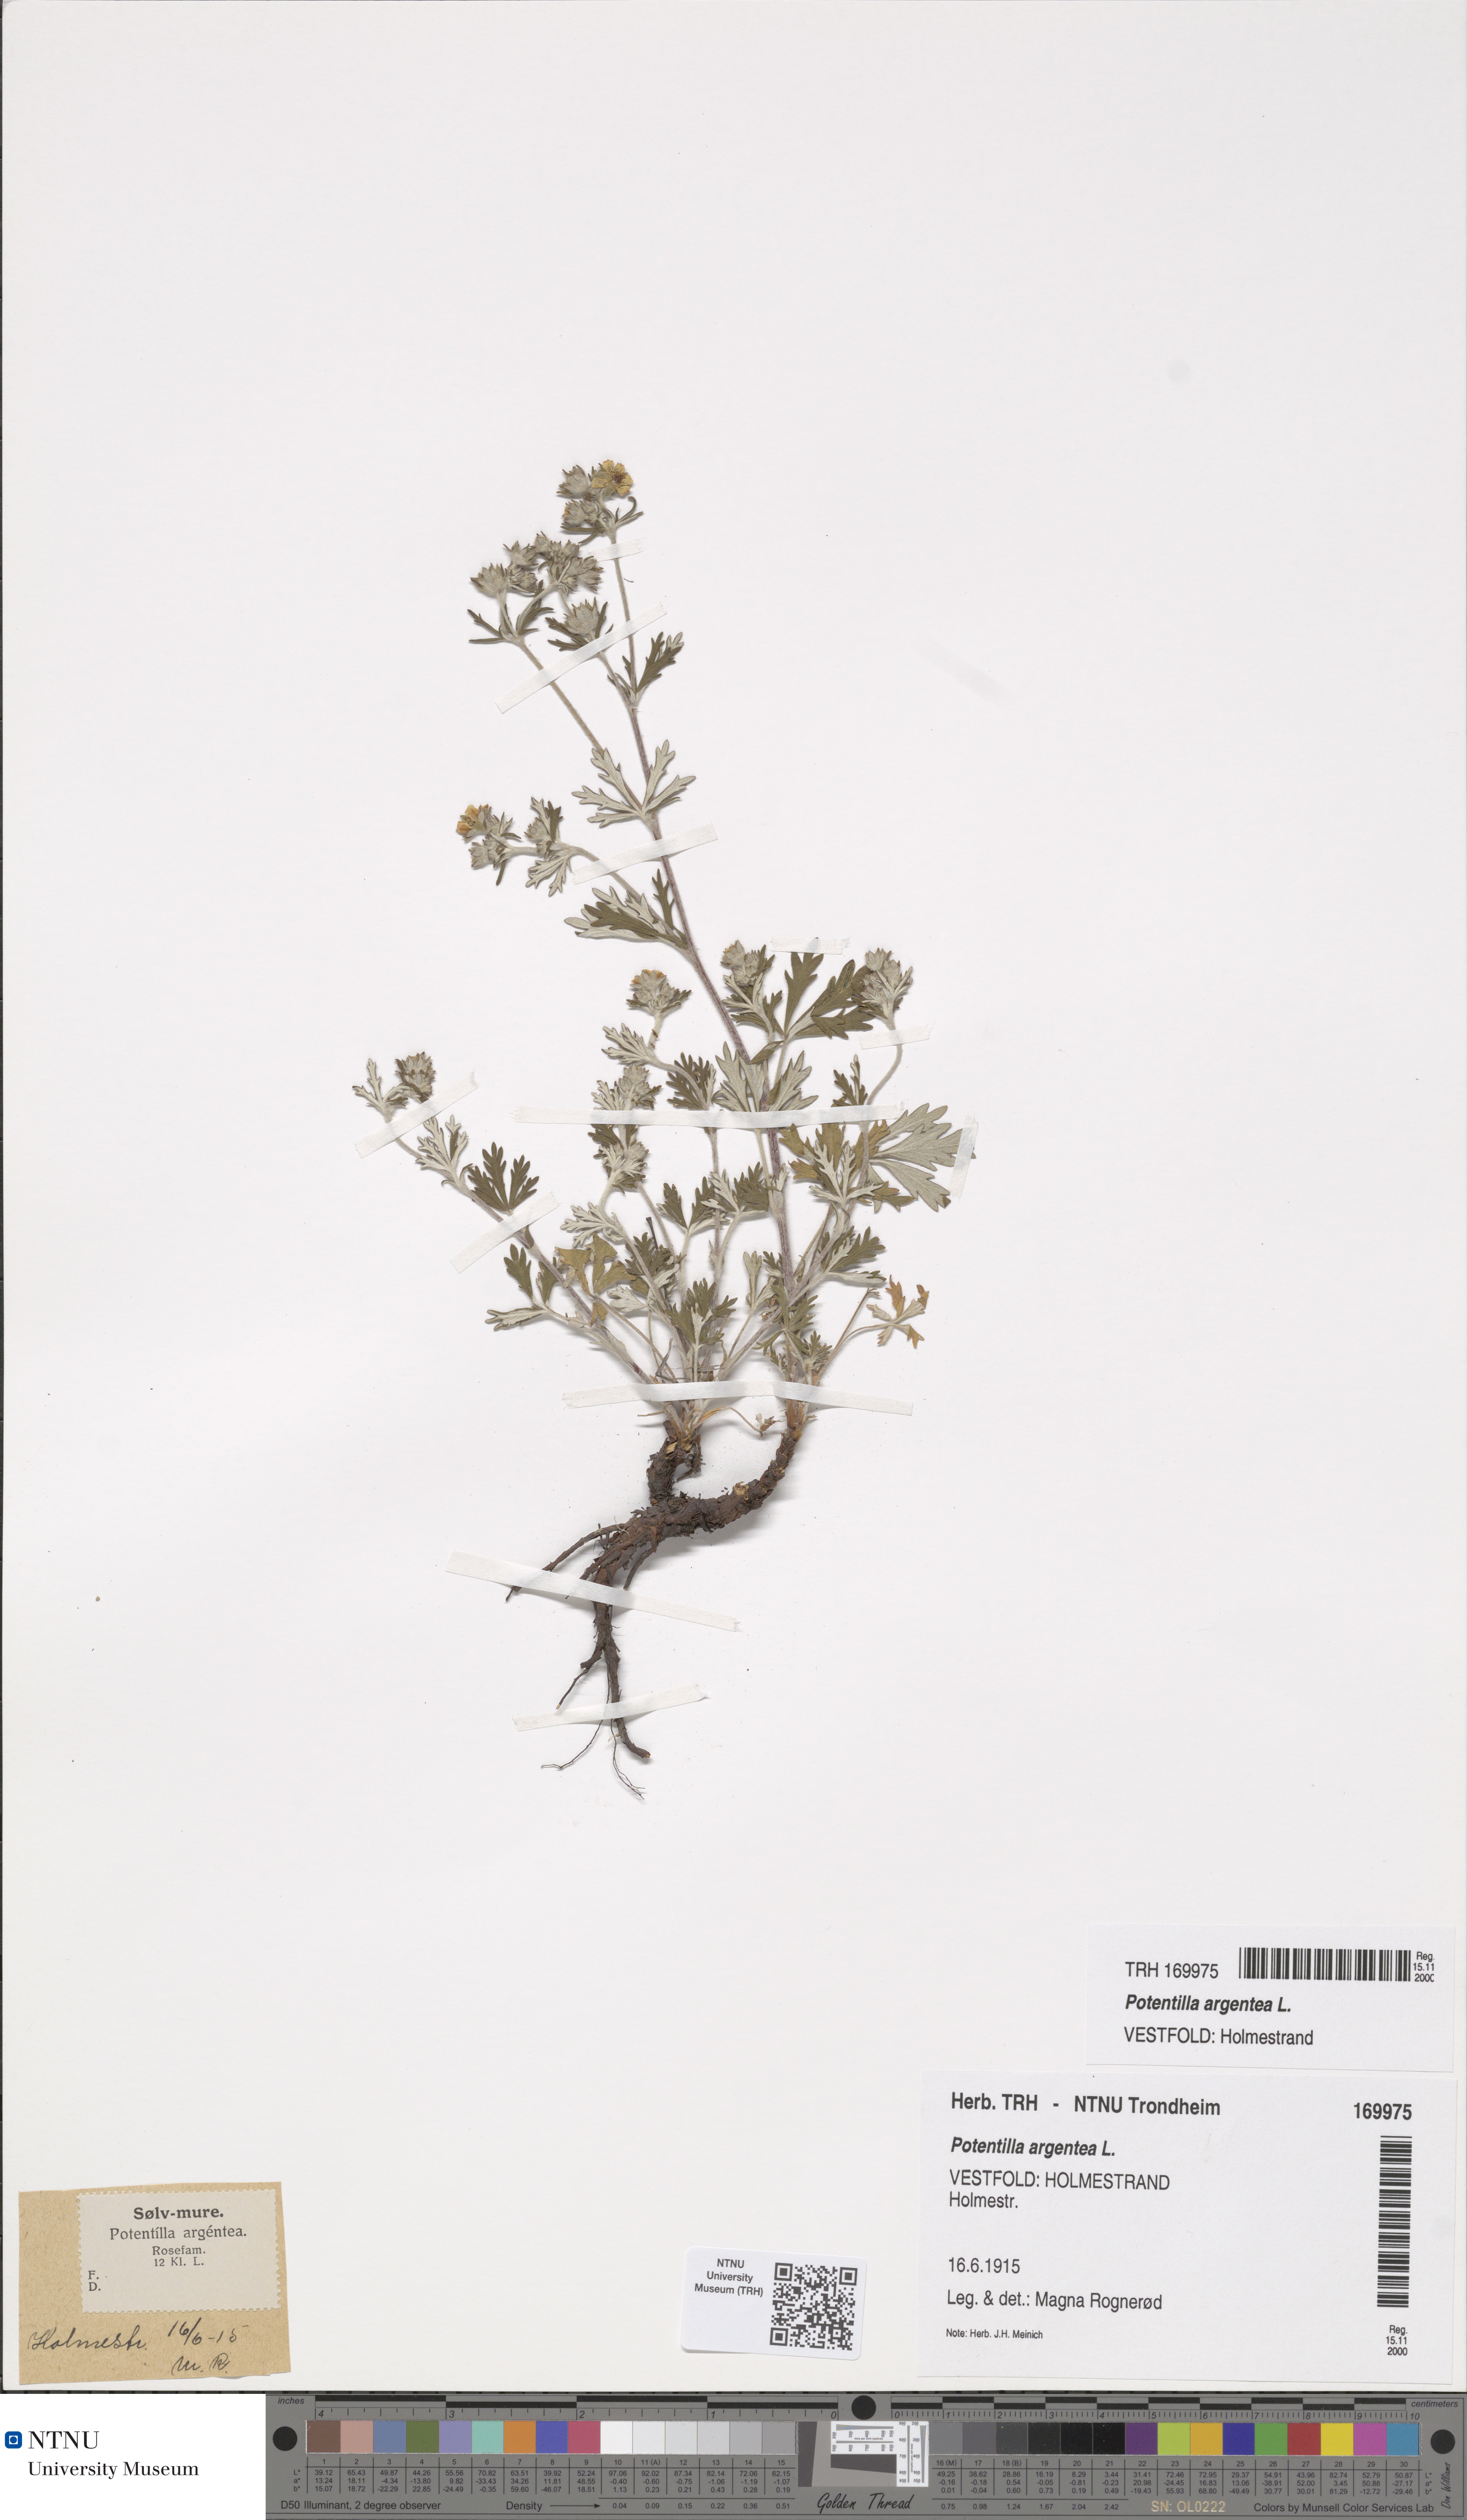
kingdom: Plantae
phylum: Tracheophyta
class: Magnoliopsida
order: Rosales
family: Rosaceae
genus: Potentilla
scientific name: Potentilla argentea
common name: Hoary cinquefoil
